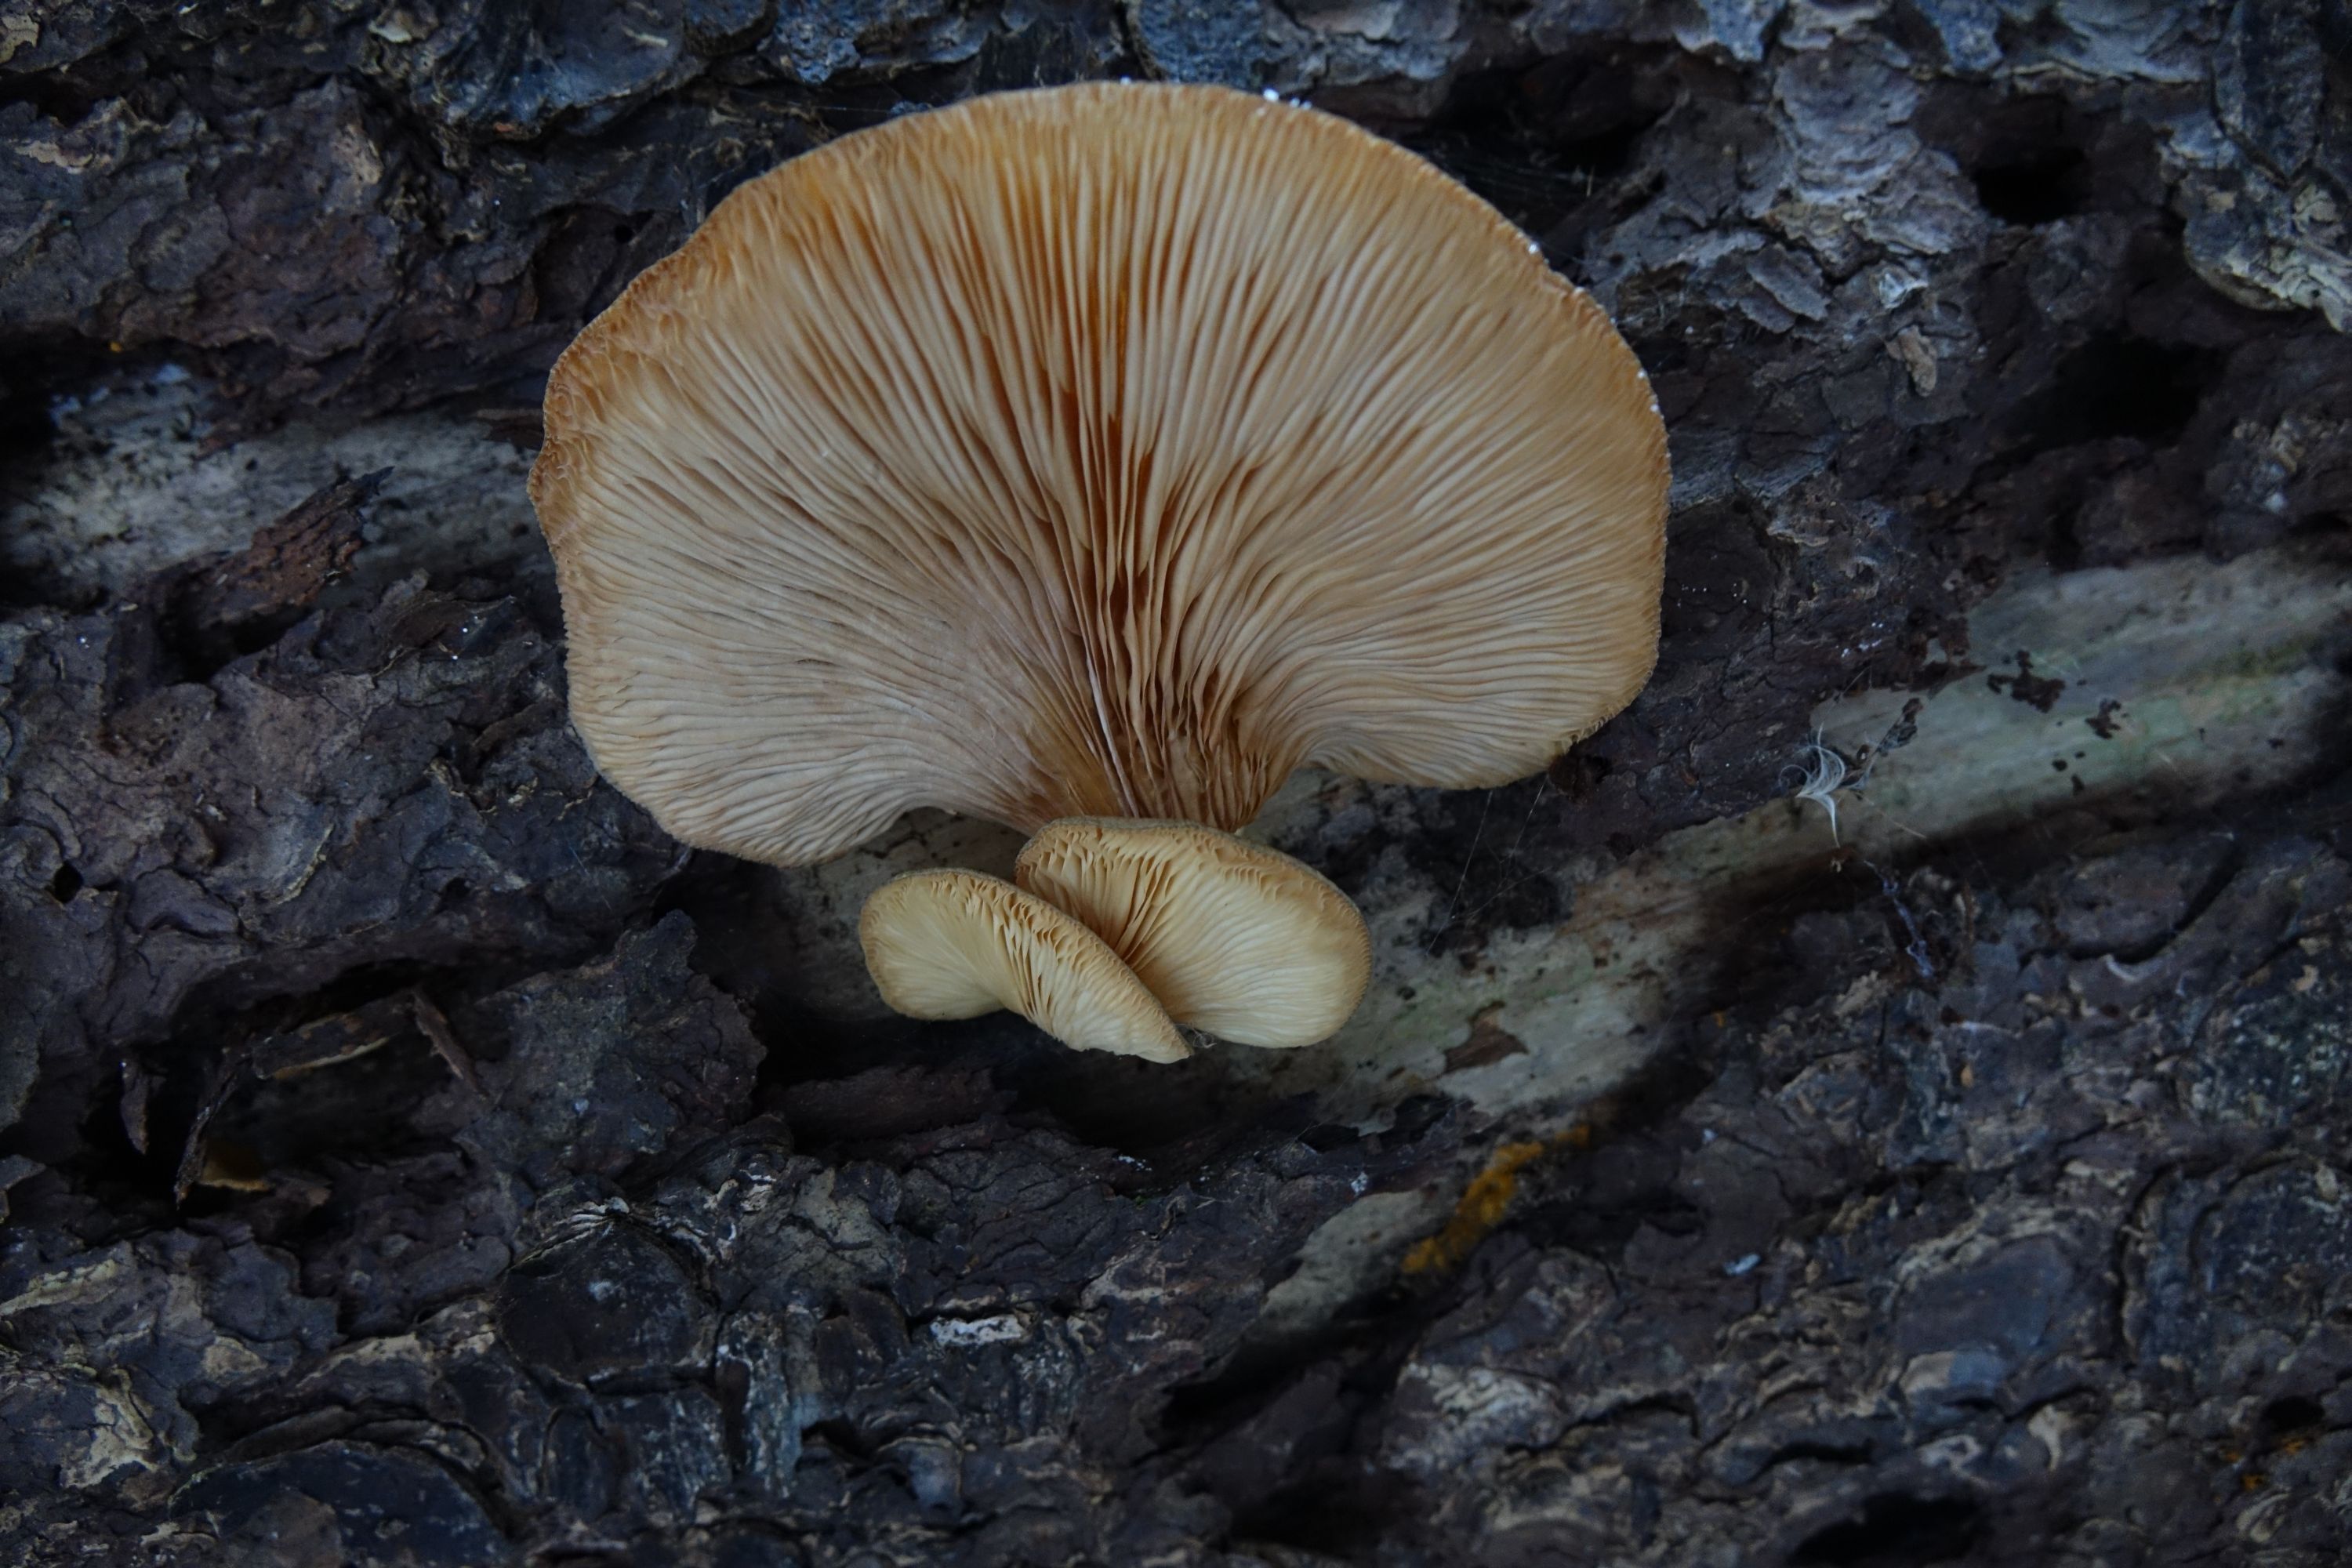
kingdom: Fungi
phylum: Basidiomycota
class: Agaricomycetes
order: Agaricales
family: Sarcomyxaceae
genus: Sarcomyxa
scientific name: Sarcomyxa serotina
